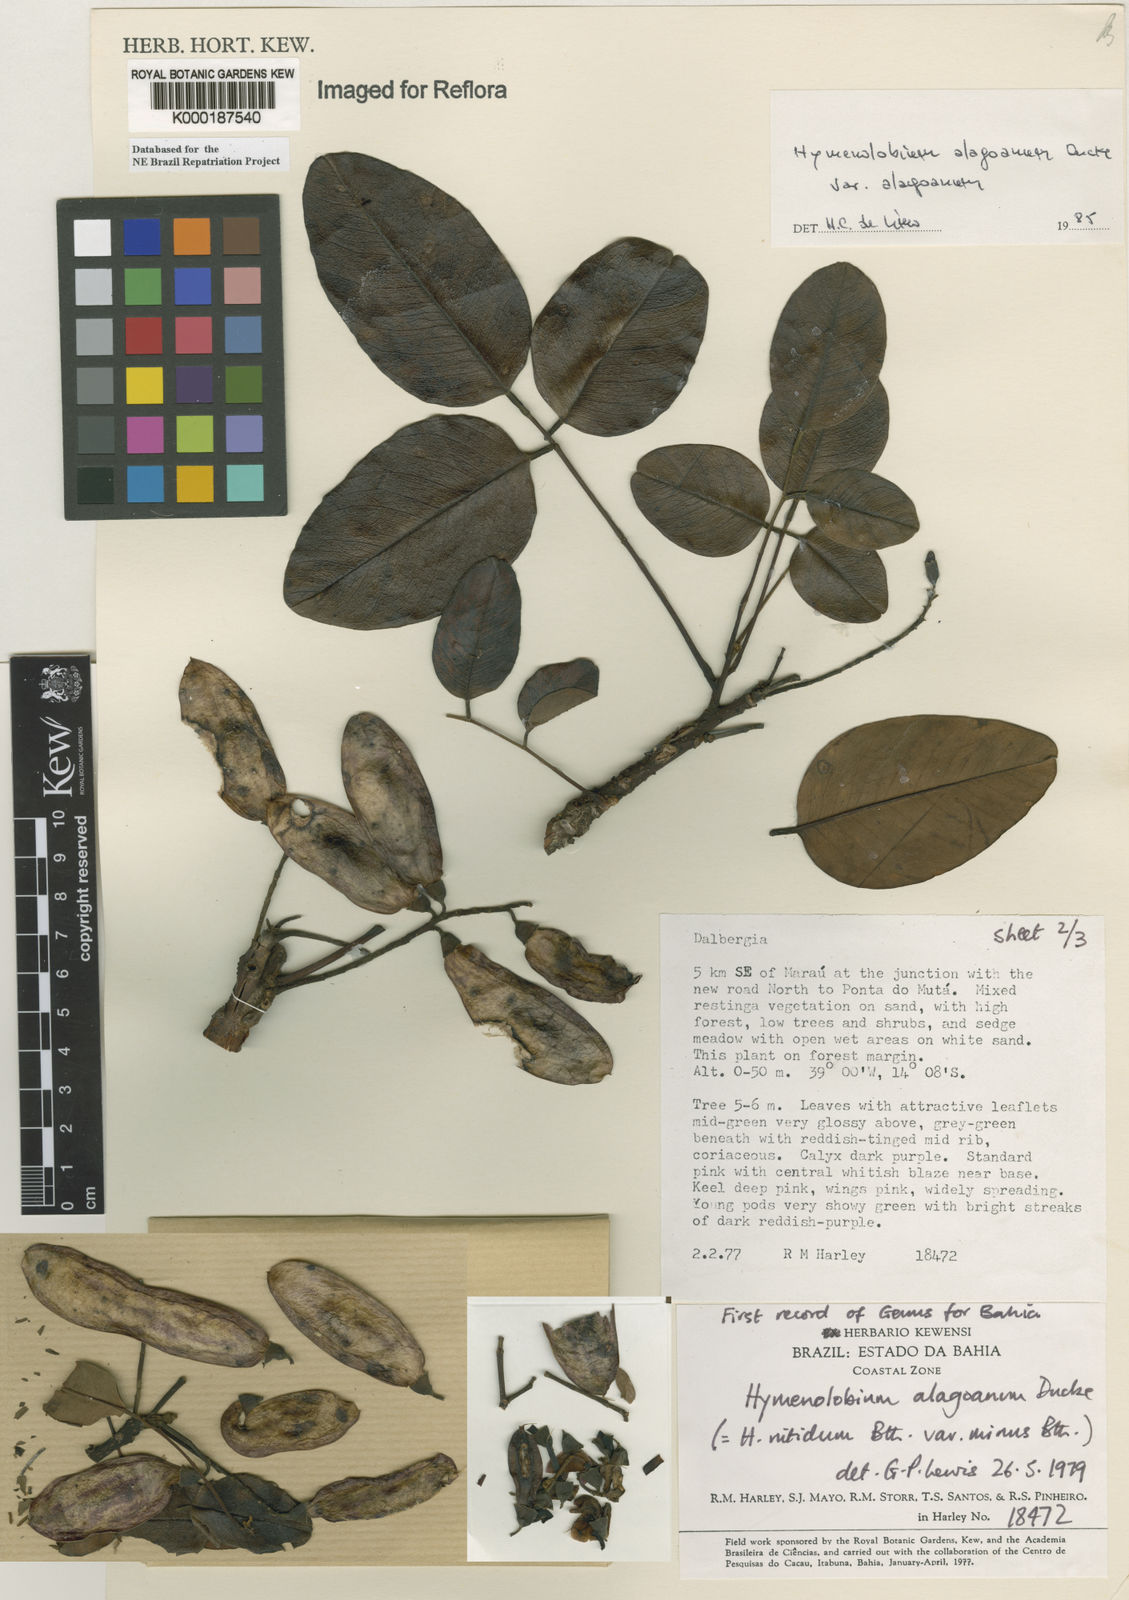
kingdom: Plantae
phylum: Tracheophyta
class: Magnoliopsida
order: Fabales
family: Fabaceae
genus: Hymenolobium
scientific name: Hymenolobium alagoanum
